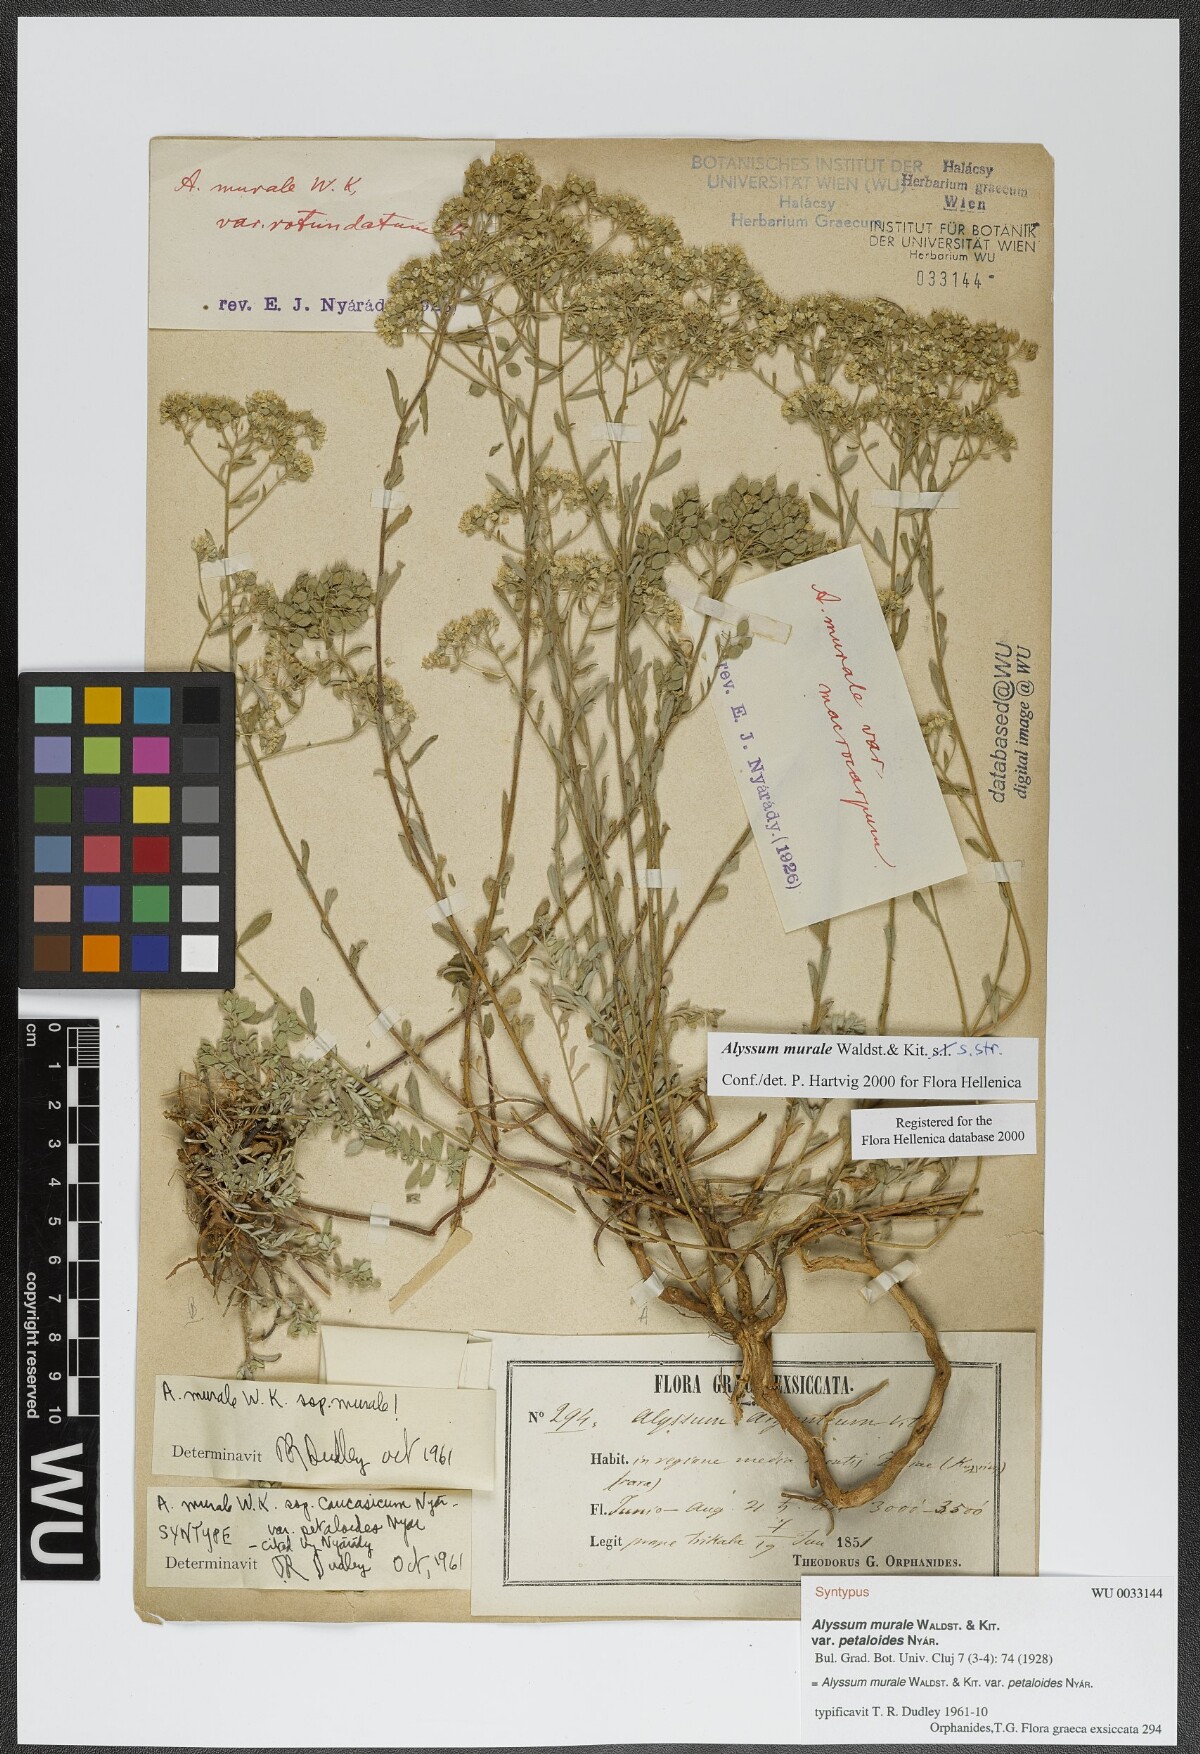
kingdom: Plantae
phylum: Tracheophyta
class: Magnoliopsida
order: Brassicales
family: Brassicaceae
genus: Odontarrhena
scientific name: Odontarrhena muralis
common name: Rock alyssum
